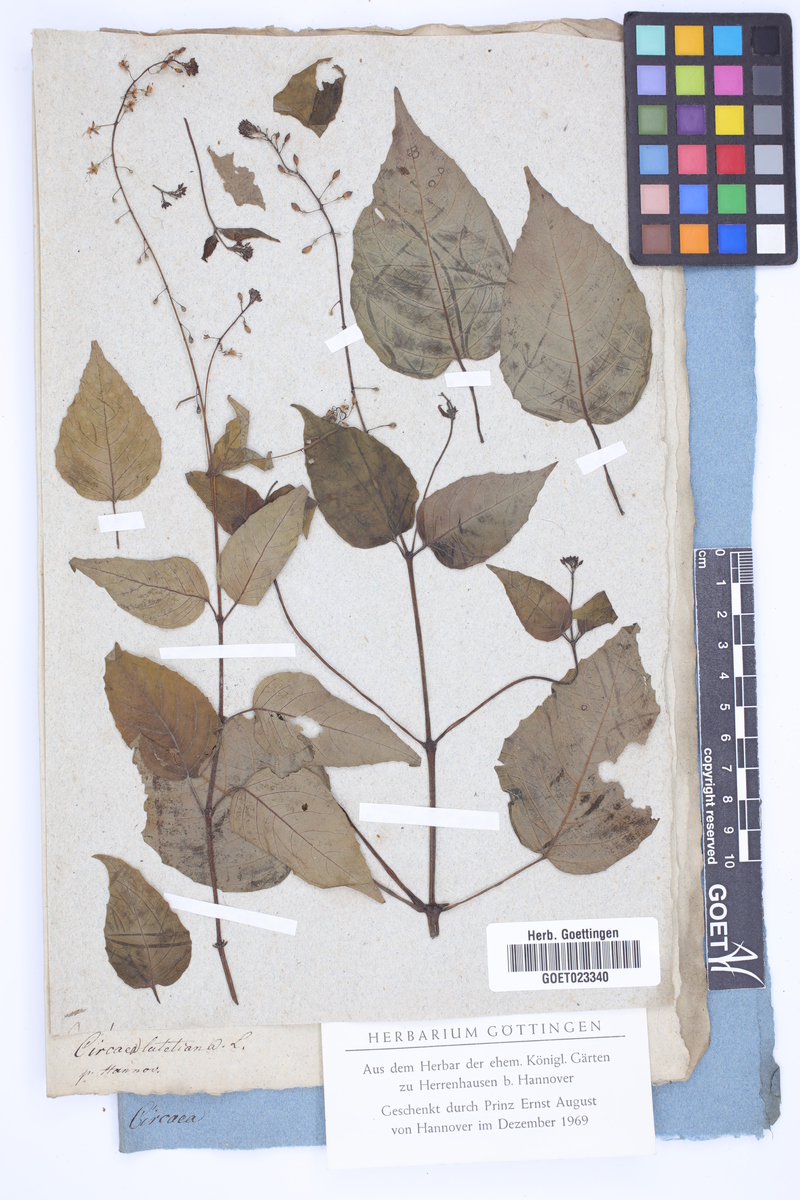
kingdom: Plantae
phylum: Tracheophyta
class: Magnoliopsida
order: Myrtales
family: Onagraceae
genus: Circaea
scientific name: Circaea lutetiana
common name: Enchanter's-nightshade
